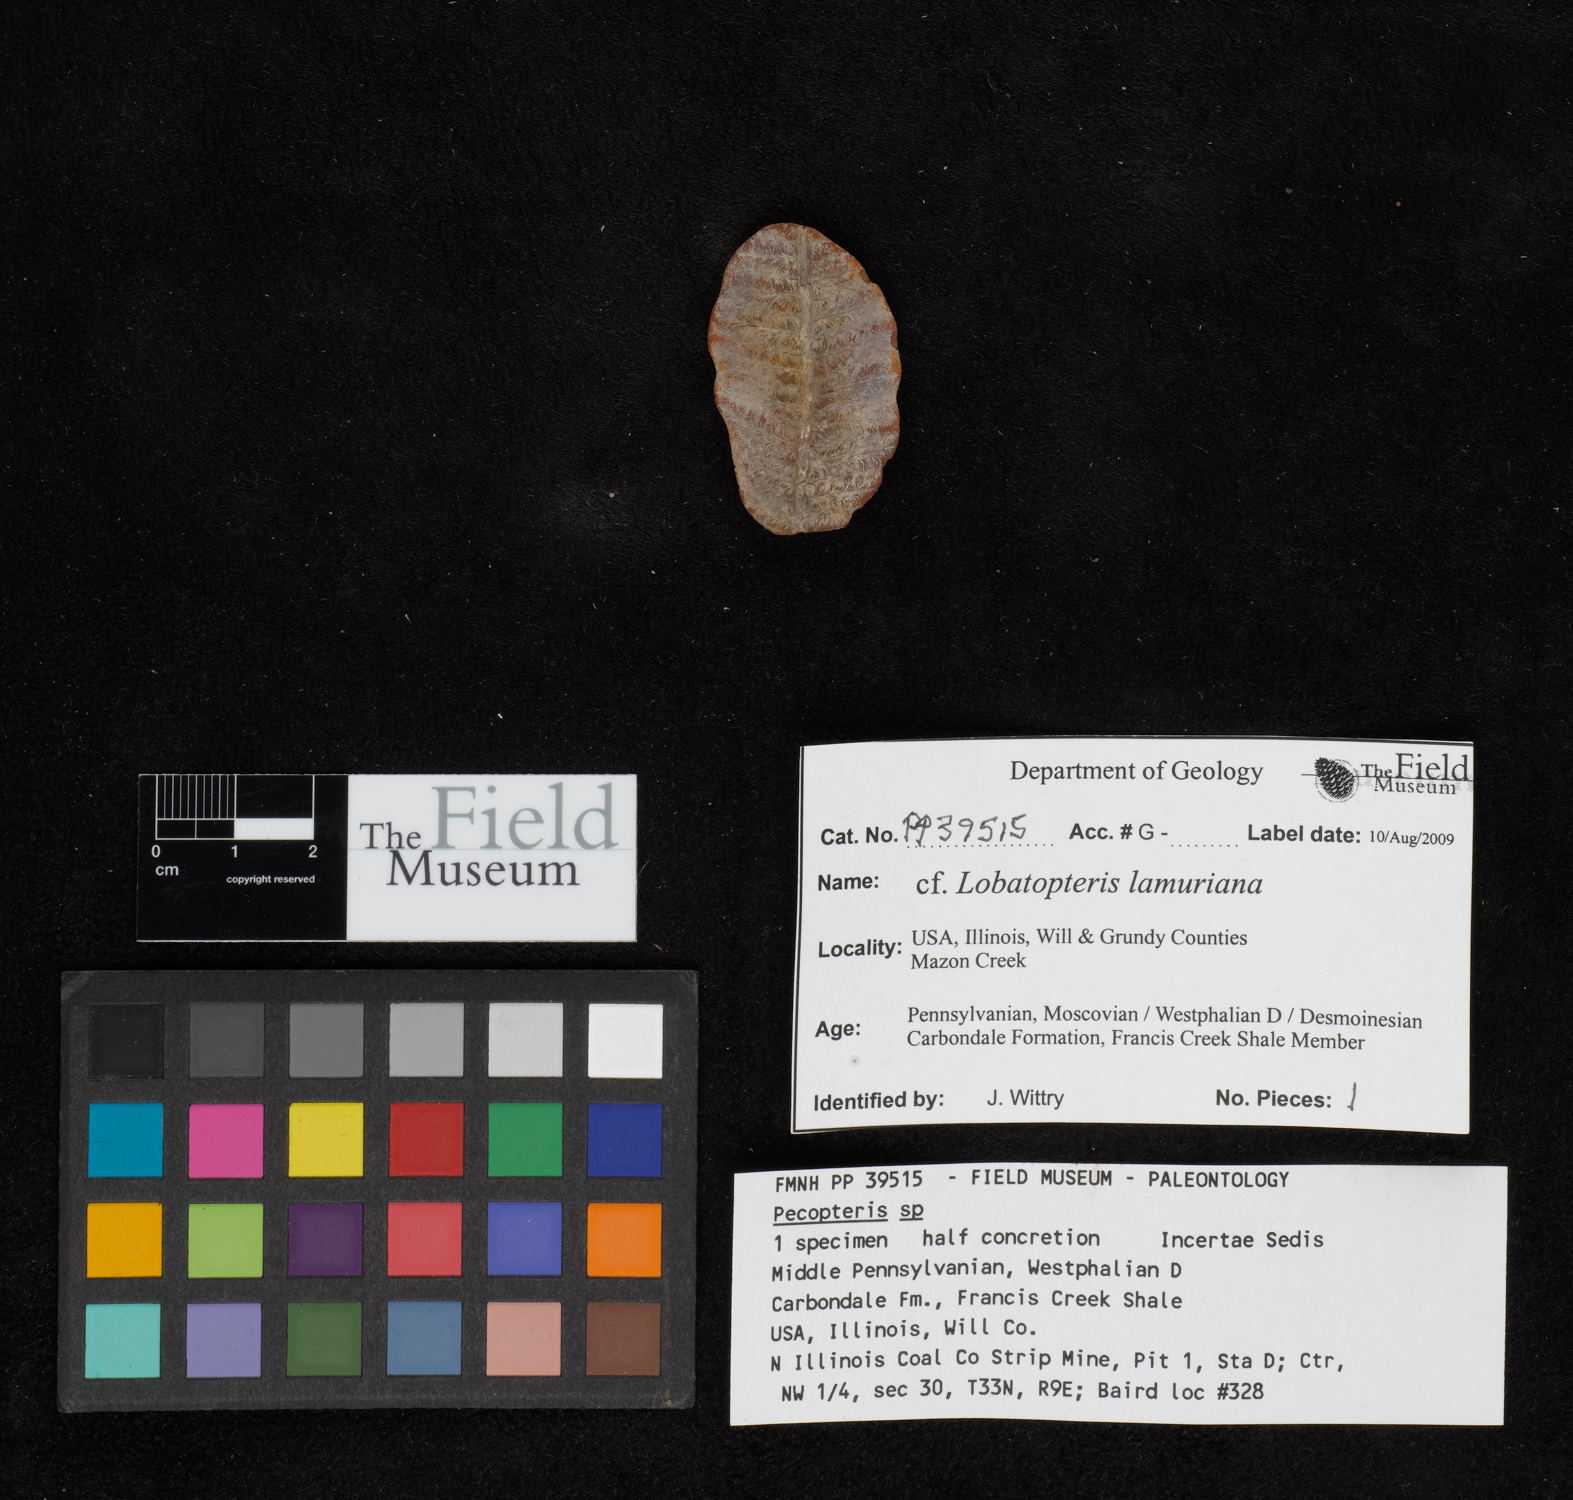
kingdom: Plantae
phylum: Tracheophyta
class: Polypodiopsida
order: Marattiales
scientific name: Marattiales
